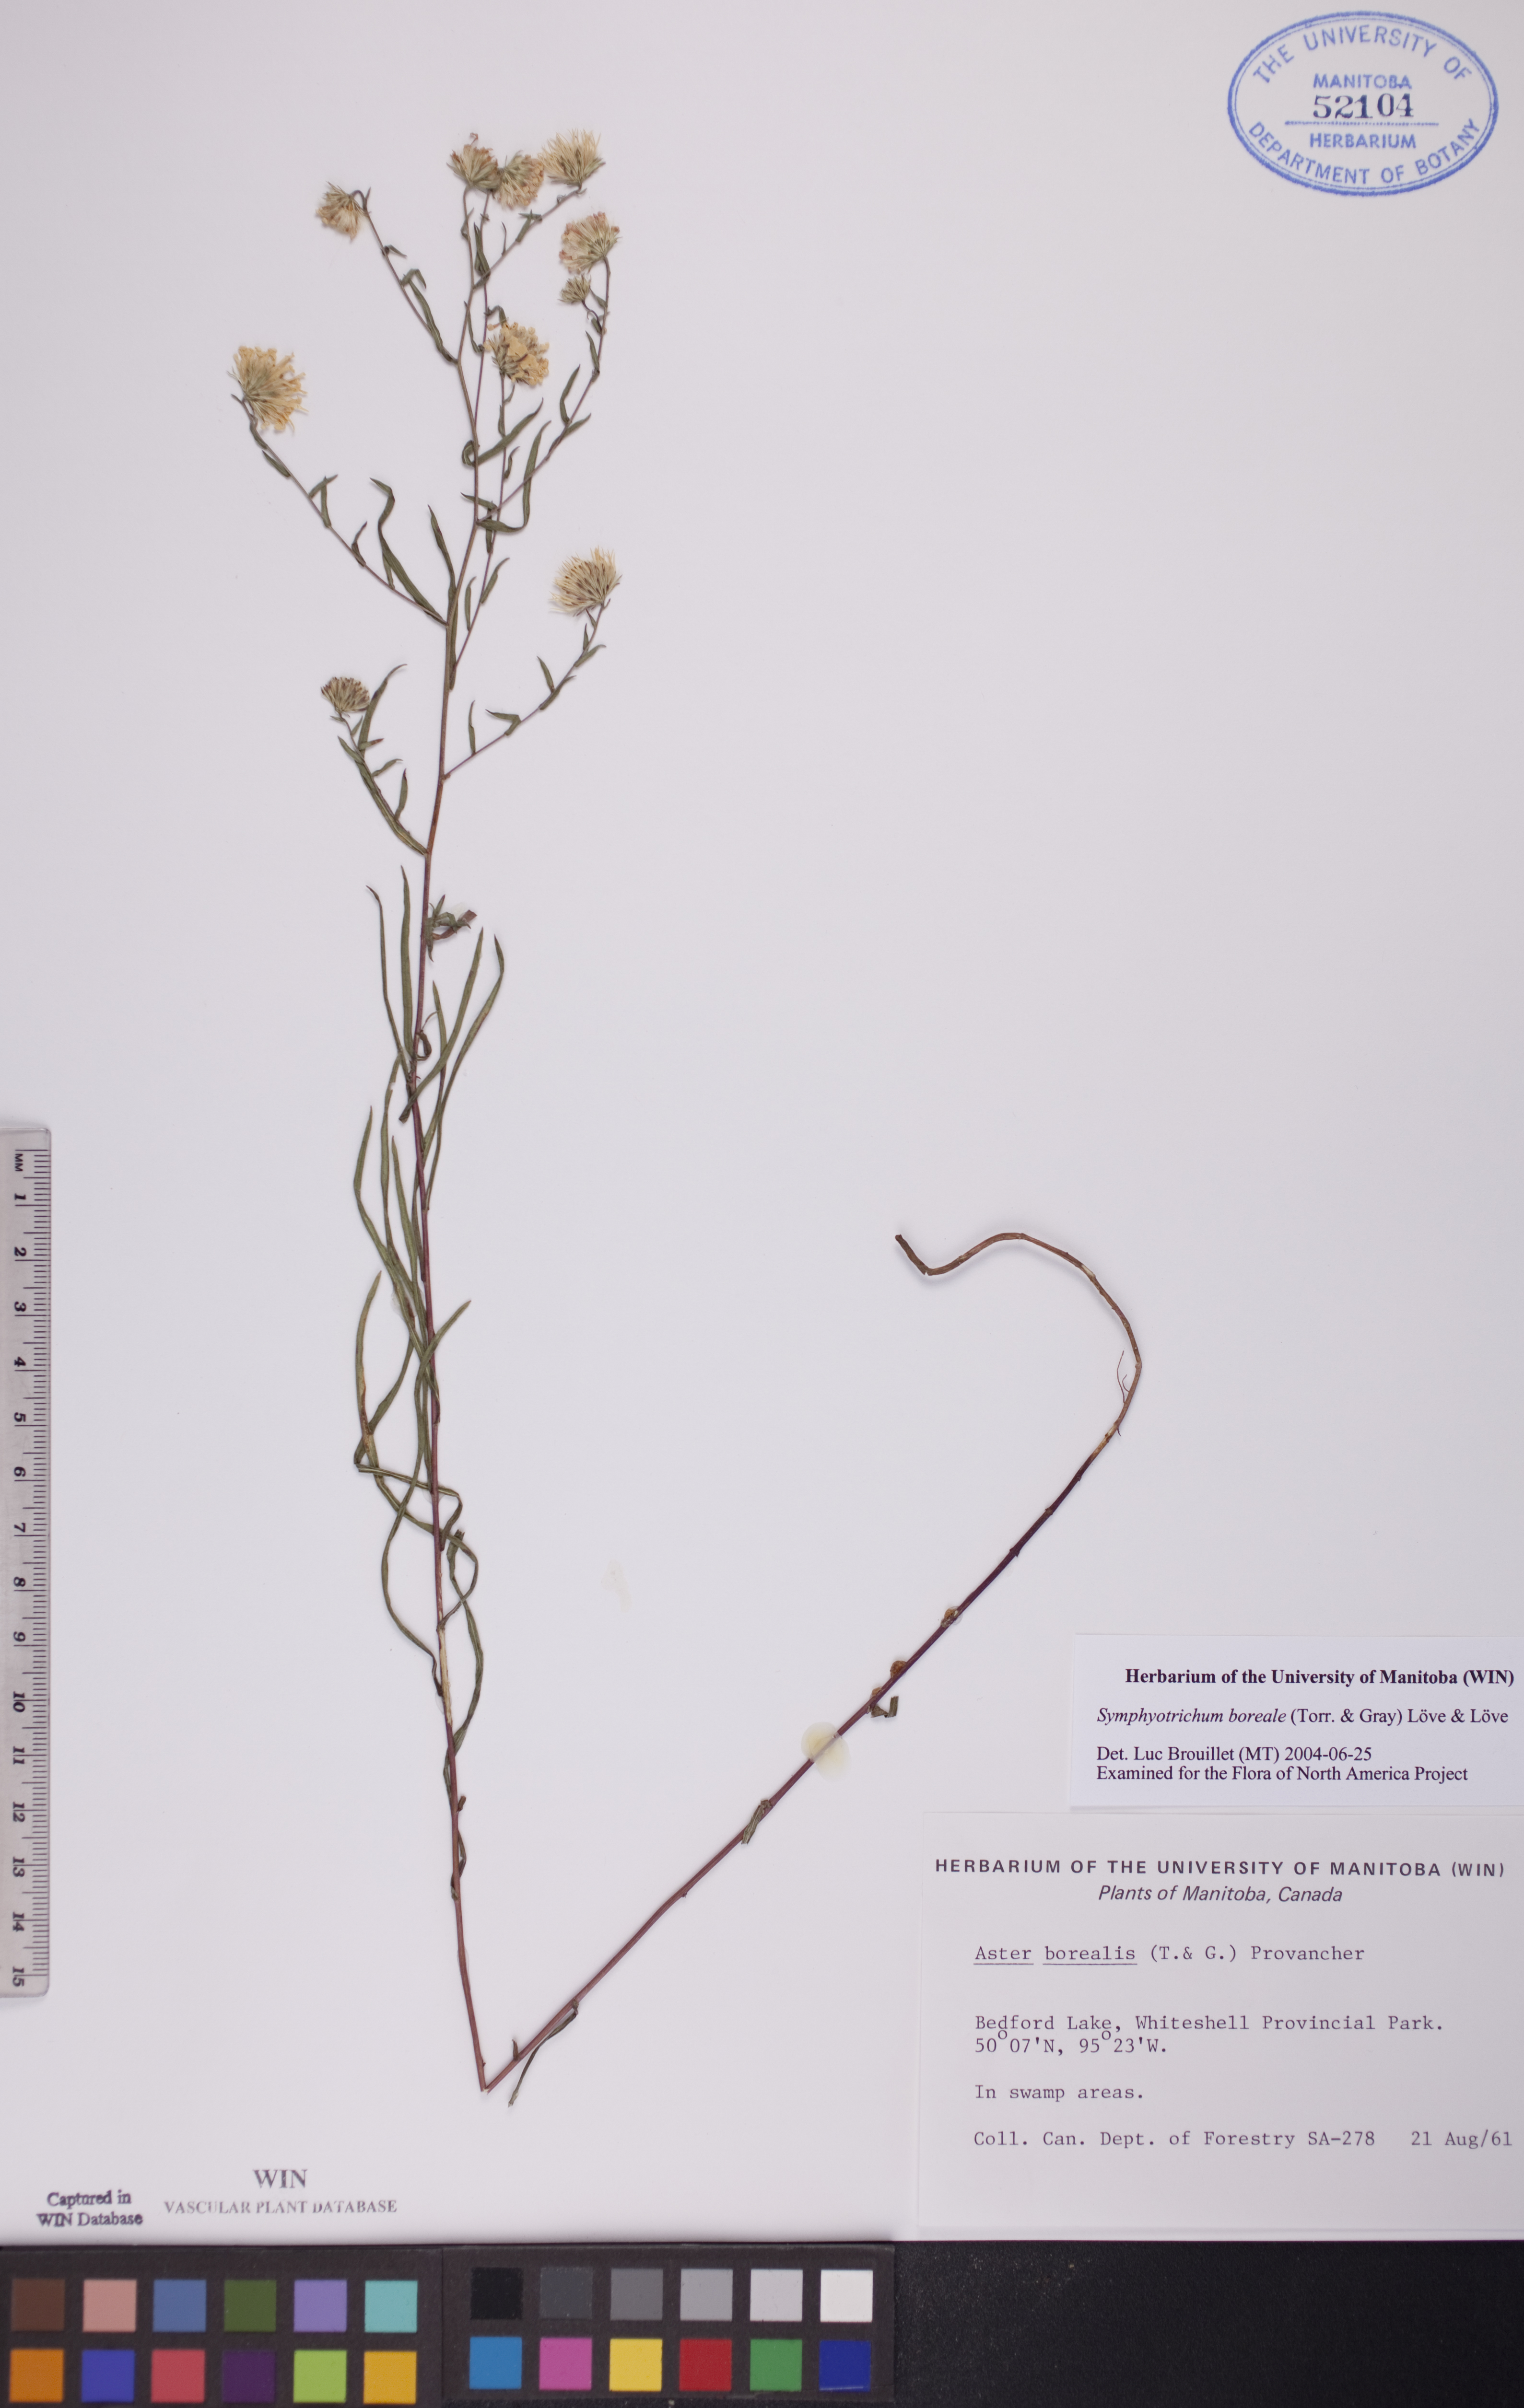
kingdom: Plantae
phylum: Tracheophyta
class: Magnoliopsida
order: Asterales
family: Asteraceae
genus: Symphyotrichum
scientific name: Symphyotrichum boreale
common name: Northern bog aster
